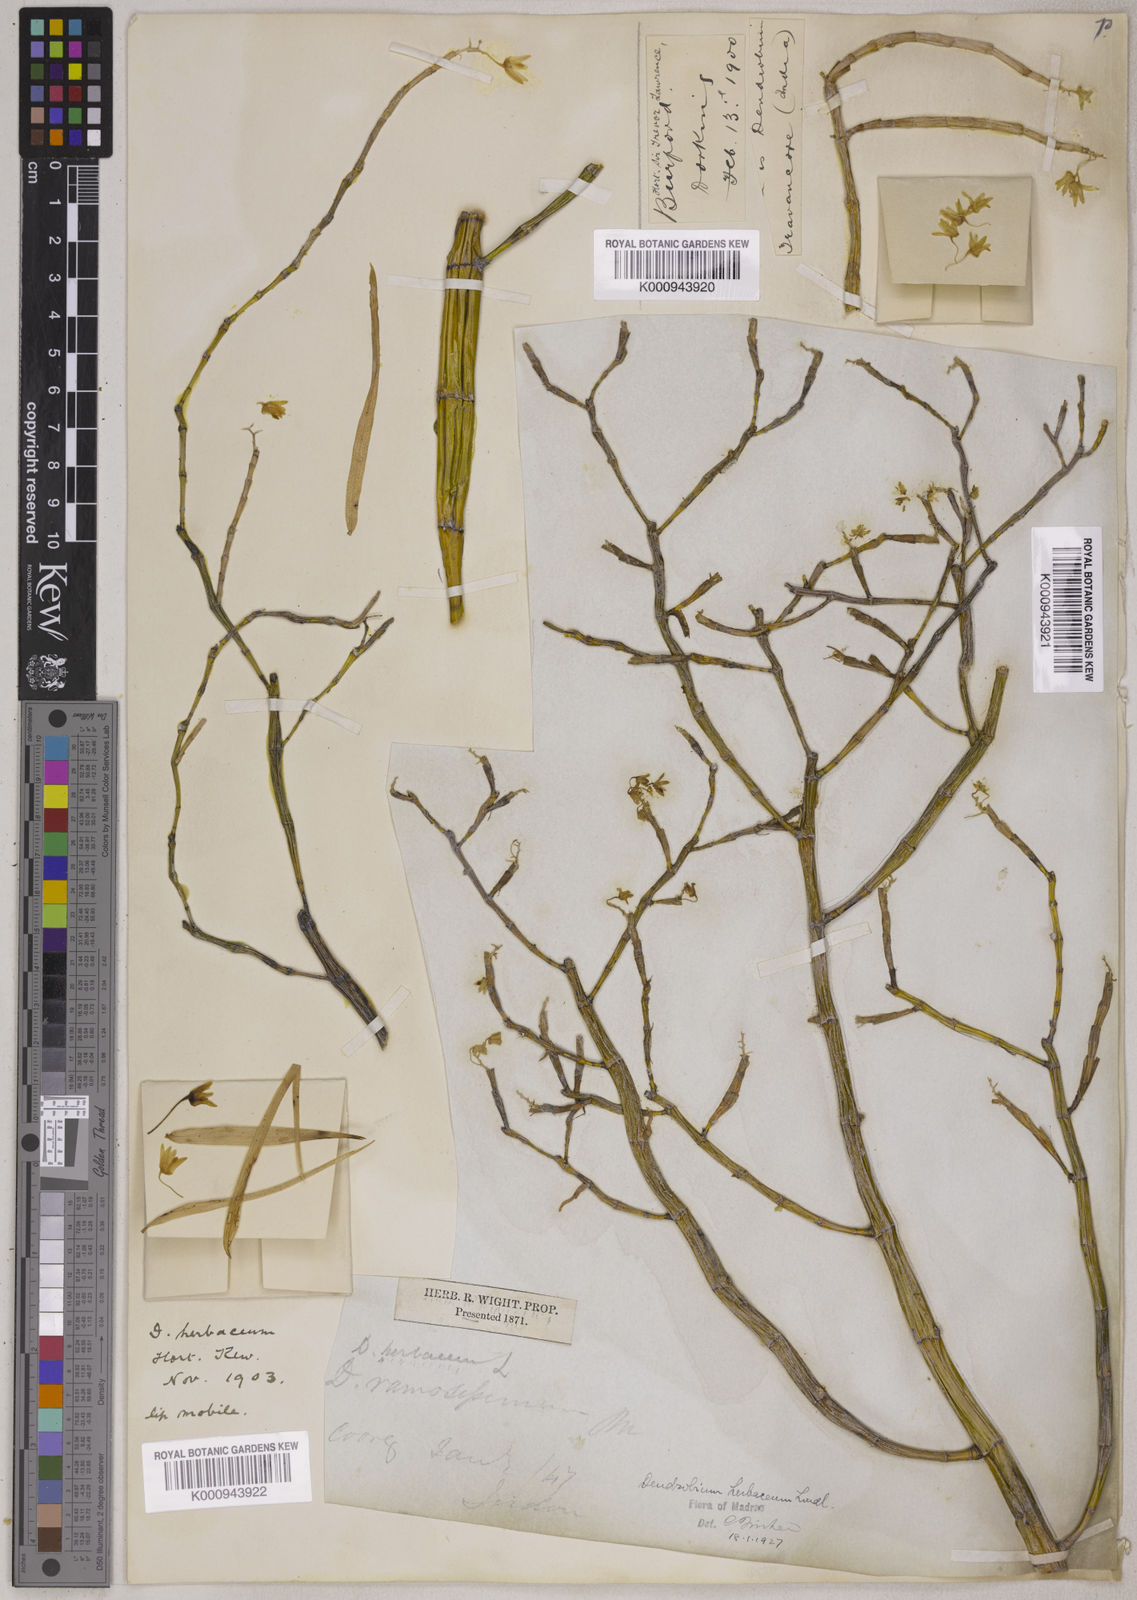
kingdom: Plantae
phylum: Tracheophyta
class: Liliopsida
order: Asparagales
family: Orchidaceae
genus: Dendrobium
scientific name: Dendrobium herbaceum
